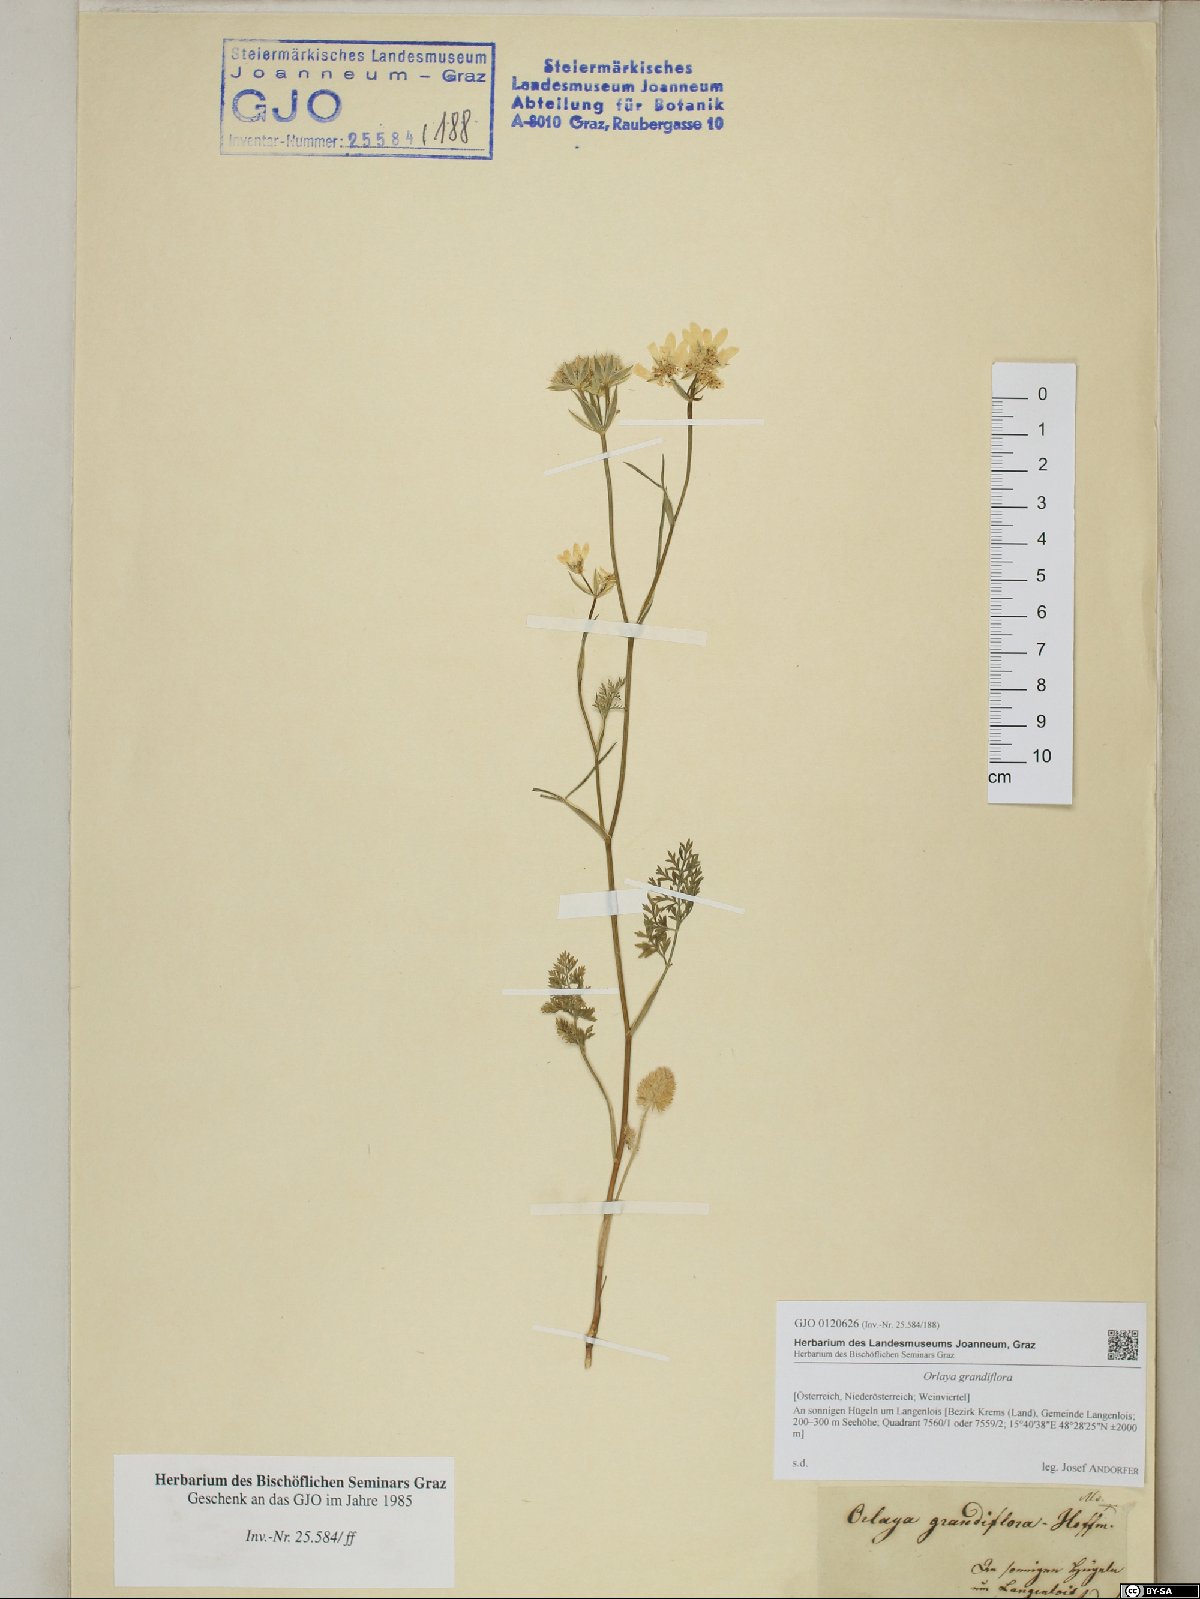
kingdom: Plantae
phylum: Tracheophyta
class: Magnoliopsida
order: Apiales
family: Apiaceae
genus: Orlaya
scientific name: Orlaya grandiflora
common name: White lace flower
